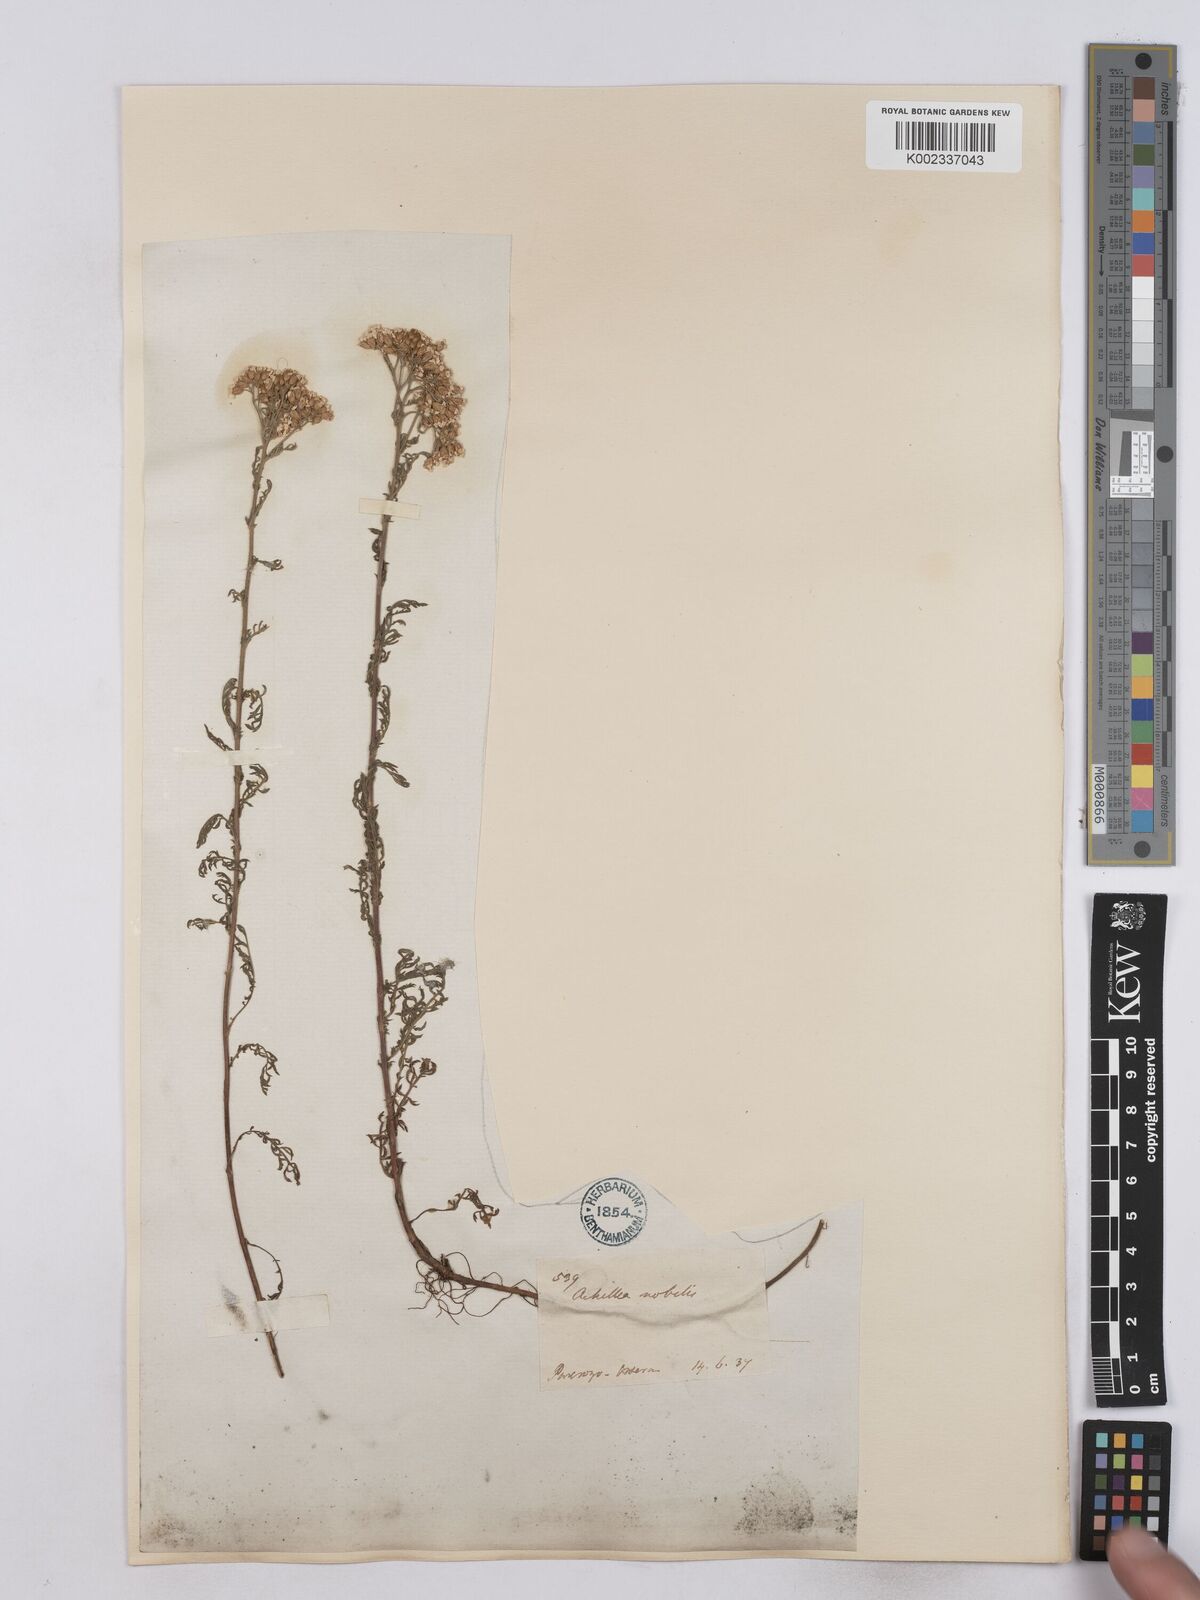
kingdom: Plantae
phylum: Tracheophyta
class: Magnoliopsida
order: Asterales
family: Asteraceae
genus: Achillea
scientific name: Achillea nobilis
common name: Noble yarrow
